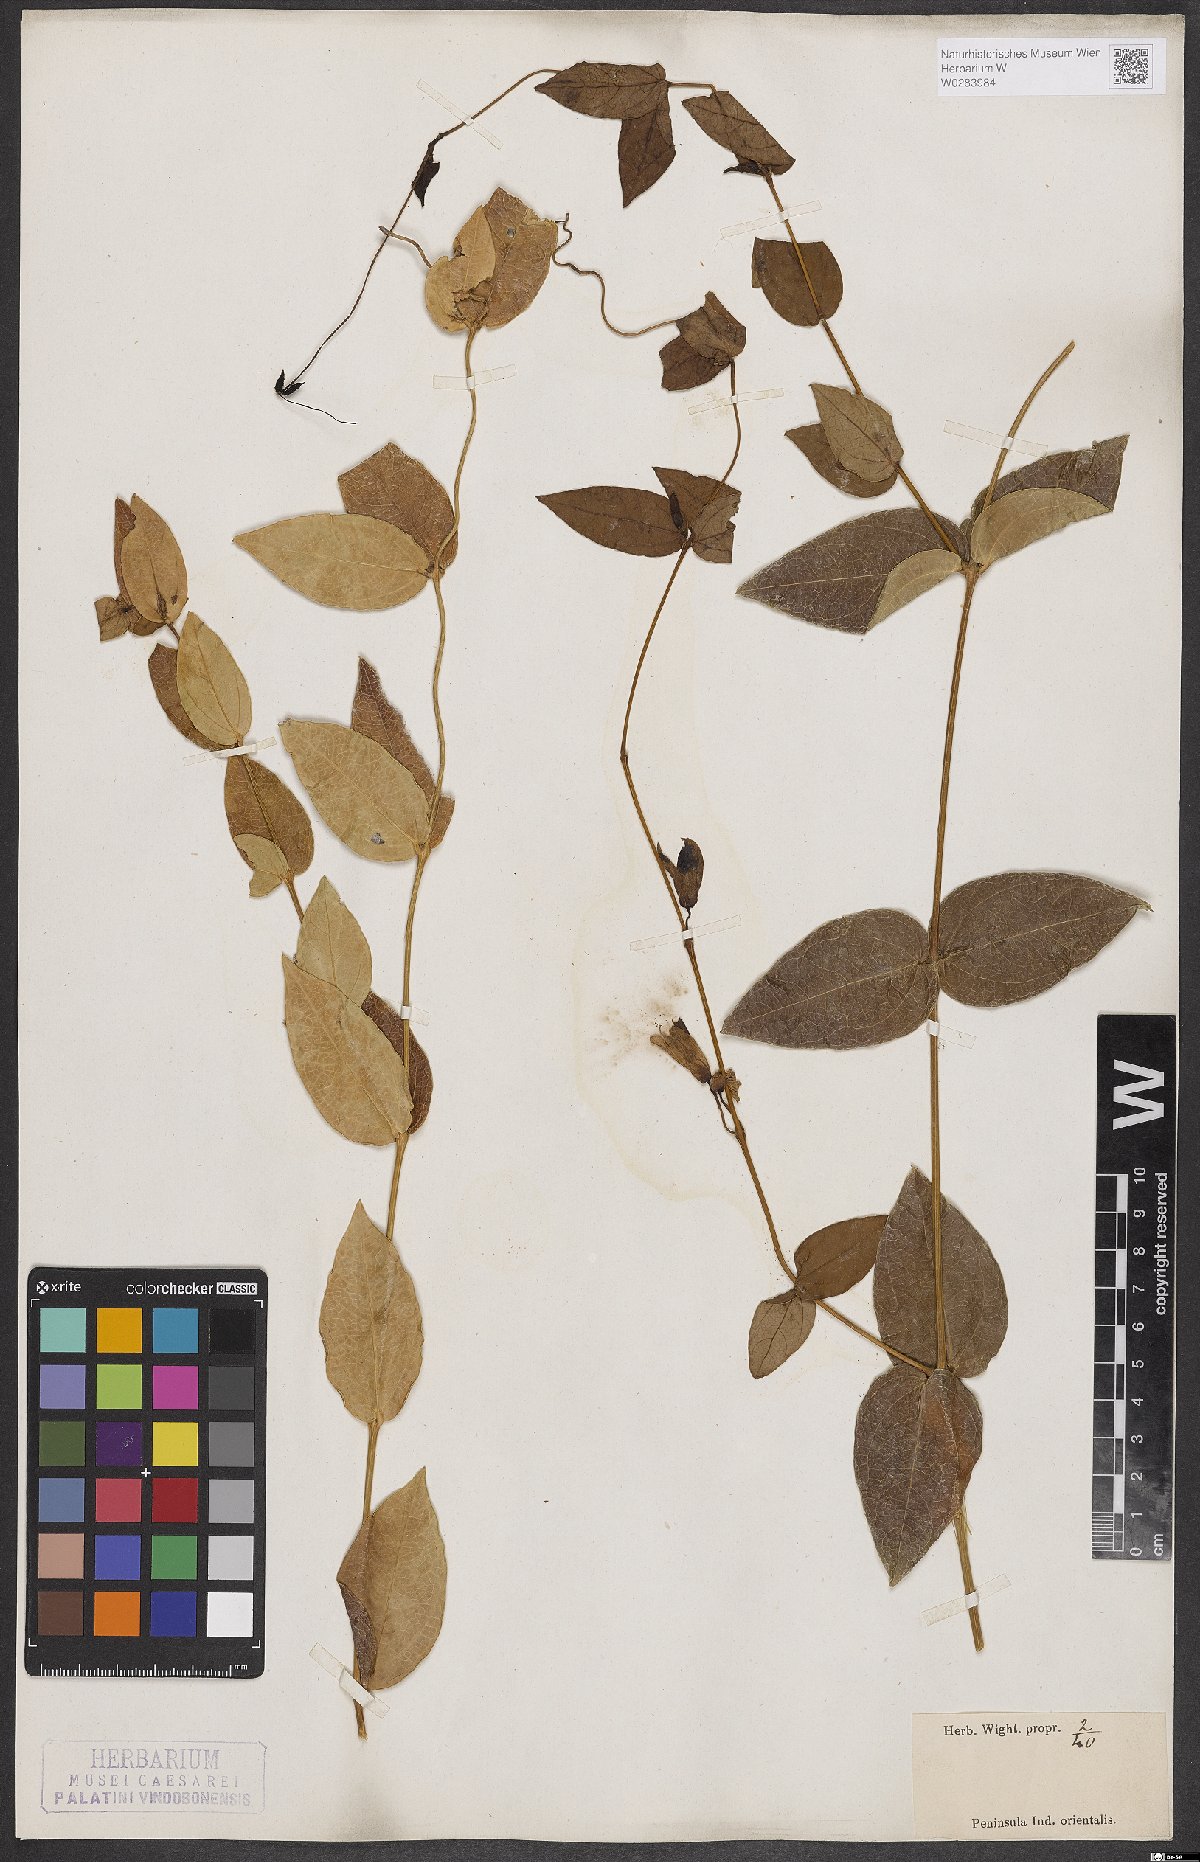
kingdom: Plantae
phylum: Tracheophyta
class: Magnoliopsida
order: Lamiales
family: Acanthaceae
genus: Meyenia
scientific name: Meyenia hawtayneana
